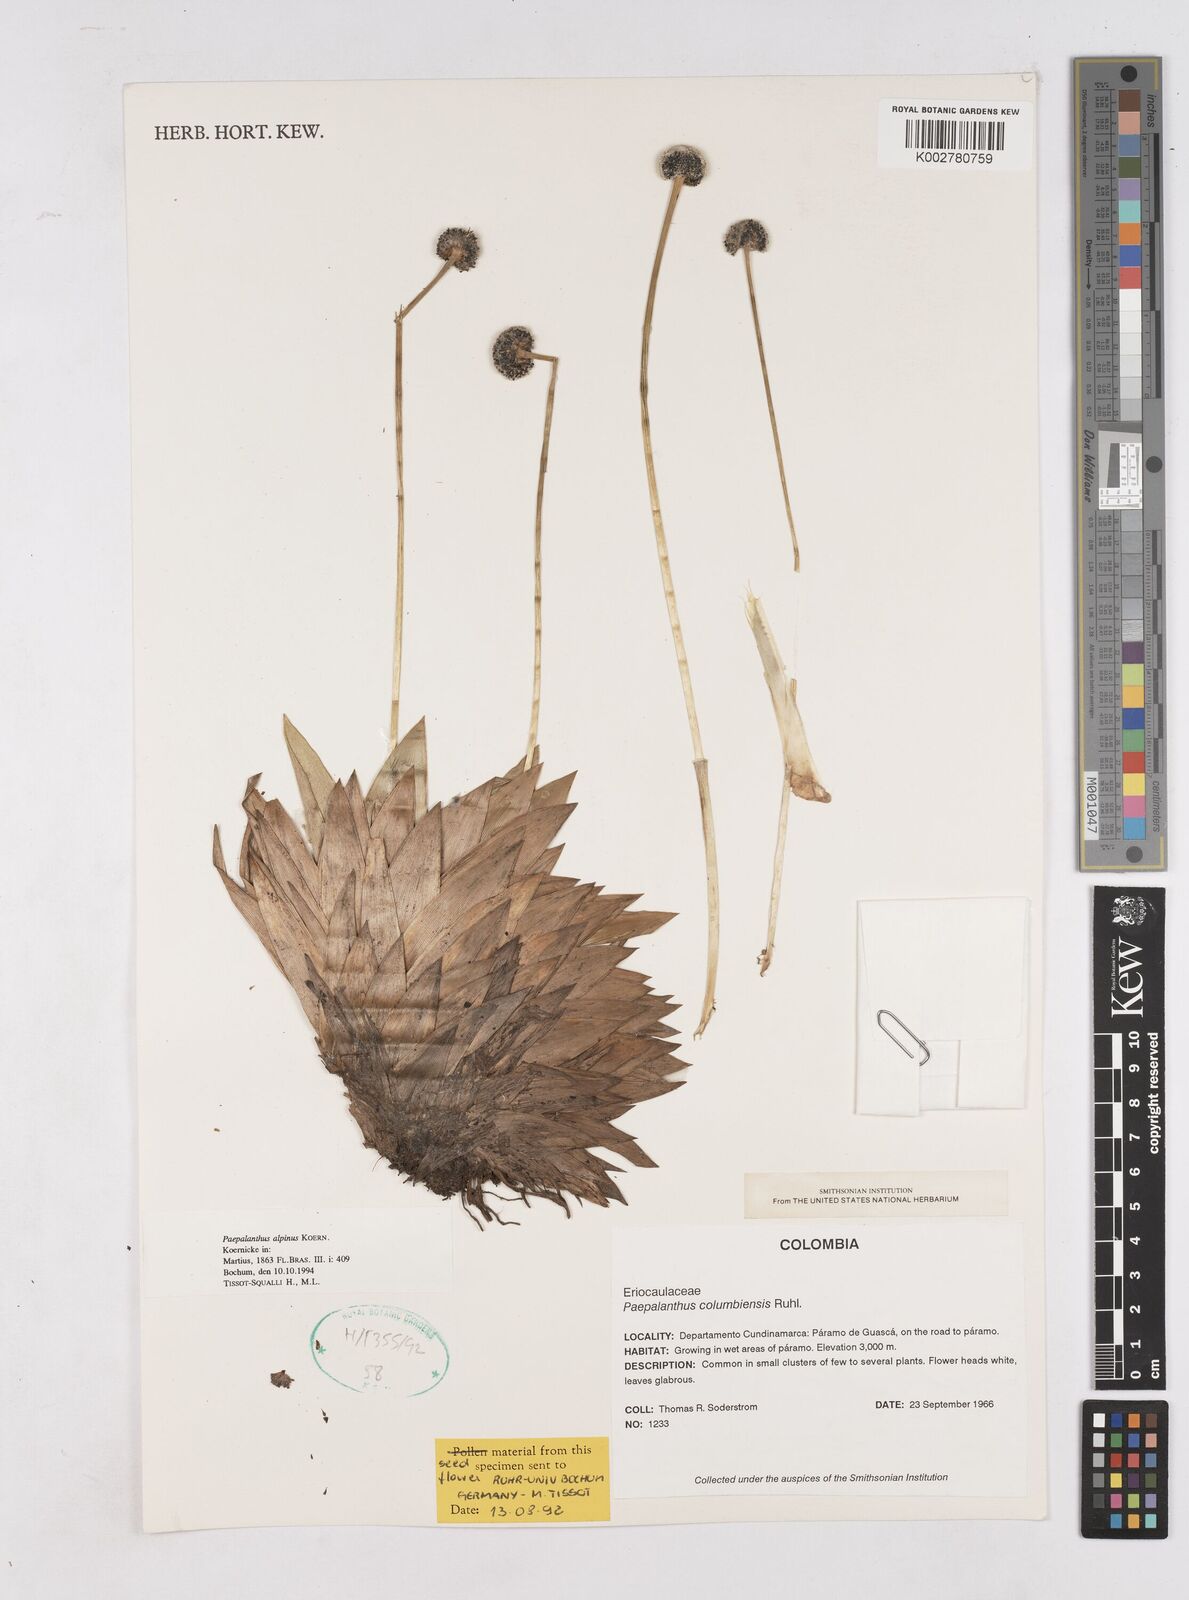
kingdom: Plantae
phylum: Tracheophyta
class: Liliopsida
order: Poales
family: Eriocaulaceae
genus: Paepalanthus
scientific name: Paepalanthus alpinus
